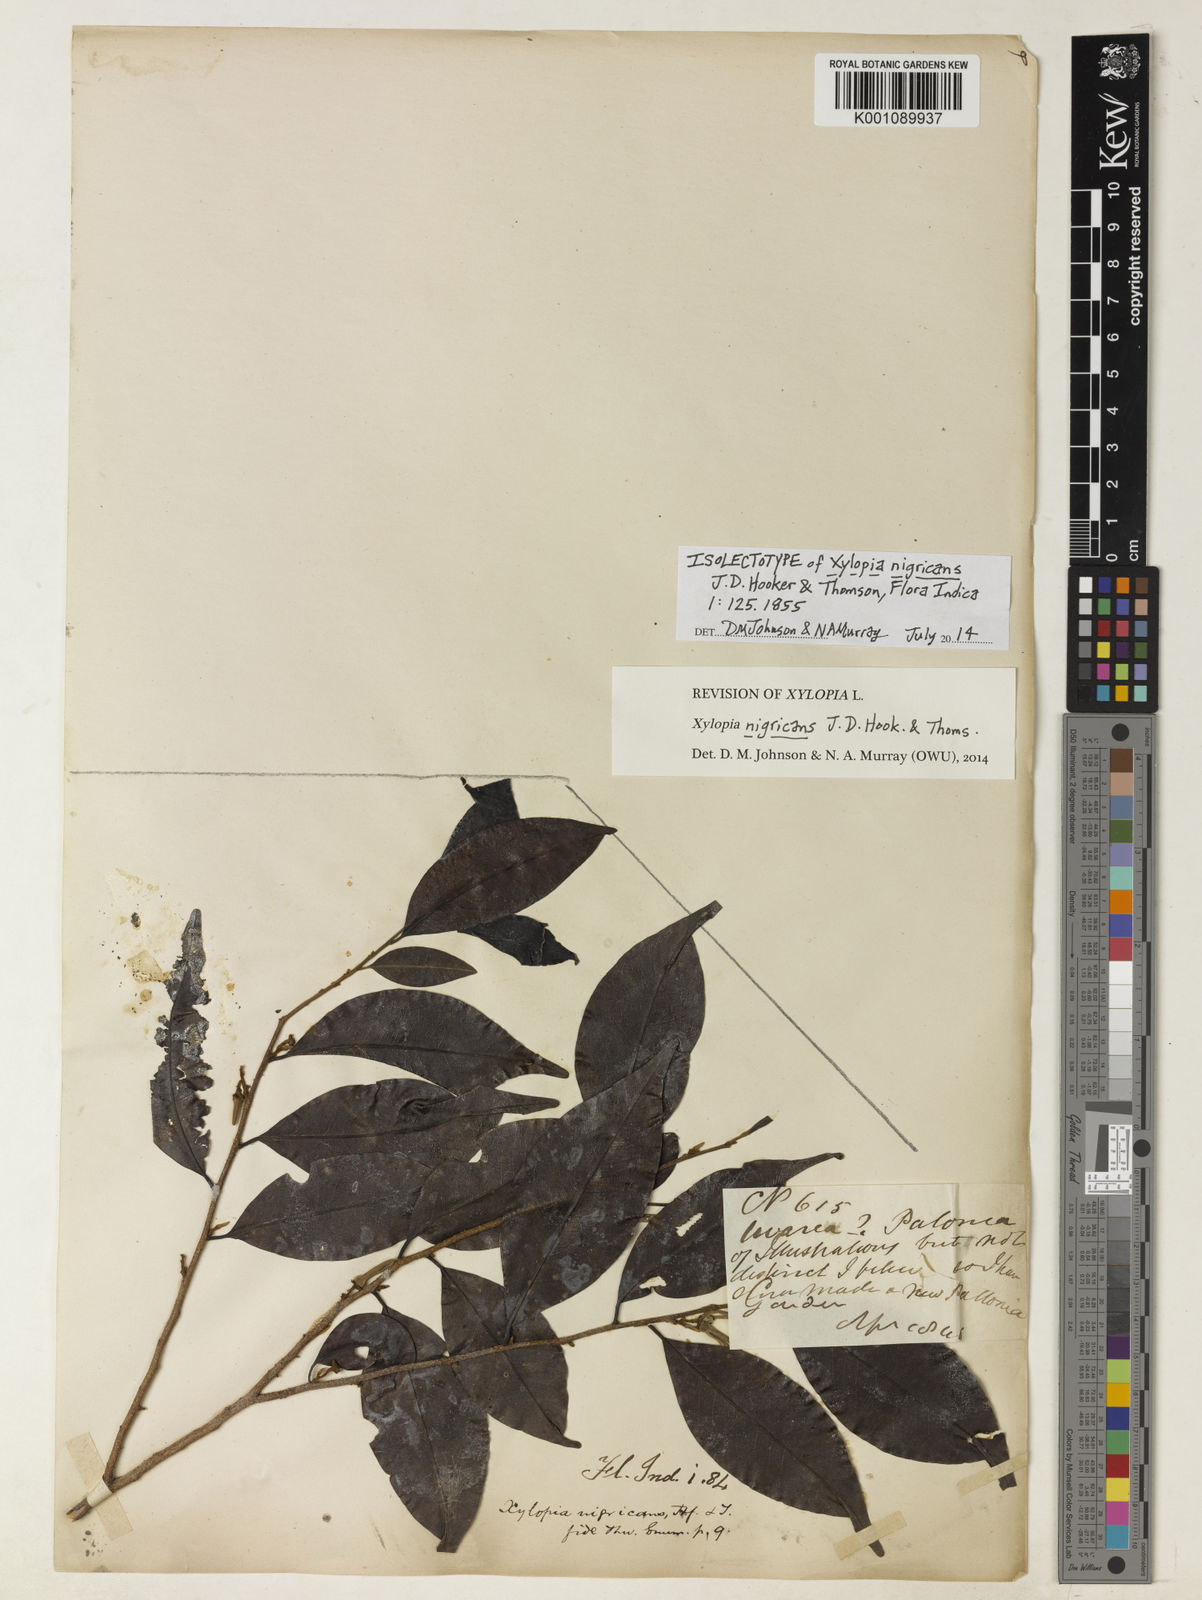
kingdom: Plantae
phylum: Tracheophyta
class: Magnoliopsida
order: Magnoliales
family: Annonaceae
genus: Xylopia
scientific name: Xylopia nigricans
